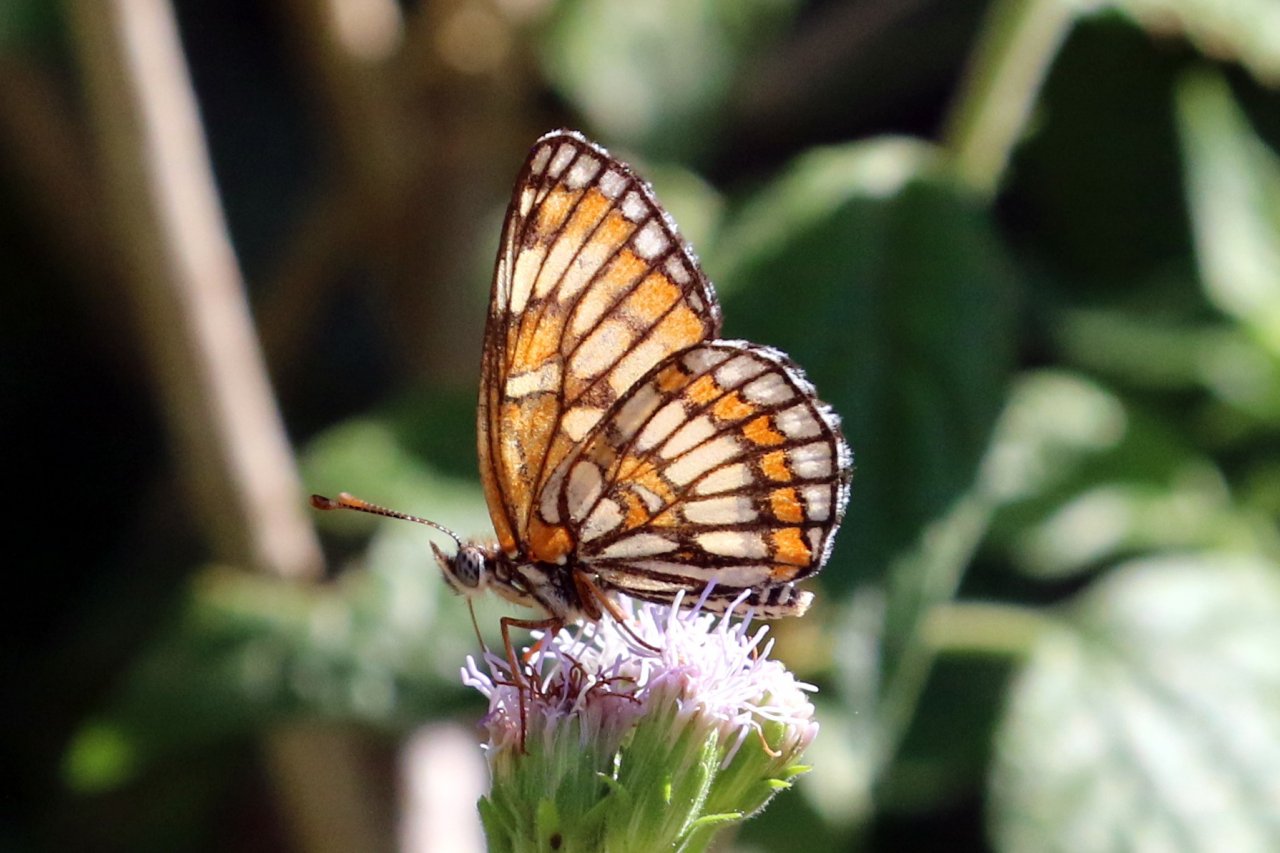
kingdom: Animalia
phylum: Arthropoda
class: Insecta
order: Lepidoptera
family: Nymphalidae
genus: Thessalia
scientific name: Thessalia theona
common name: Theona Checkerspot
